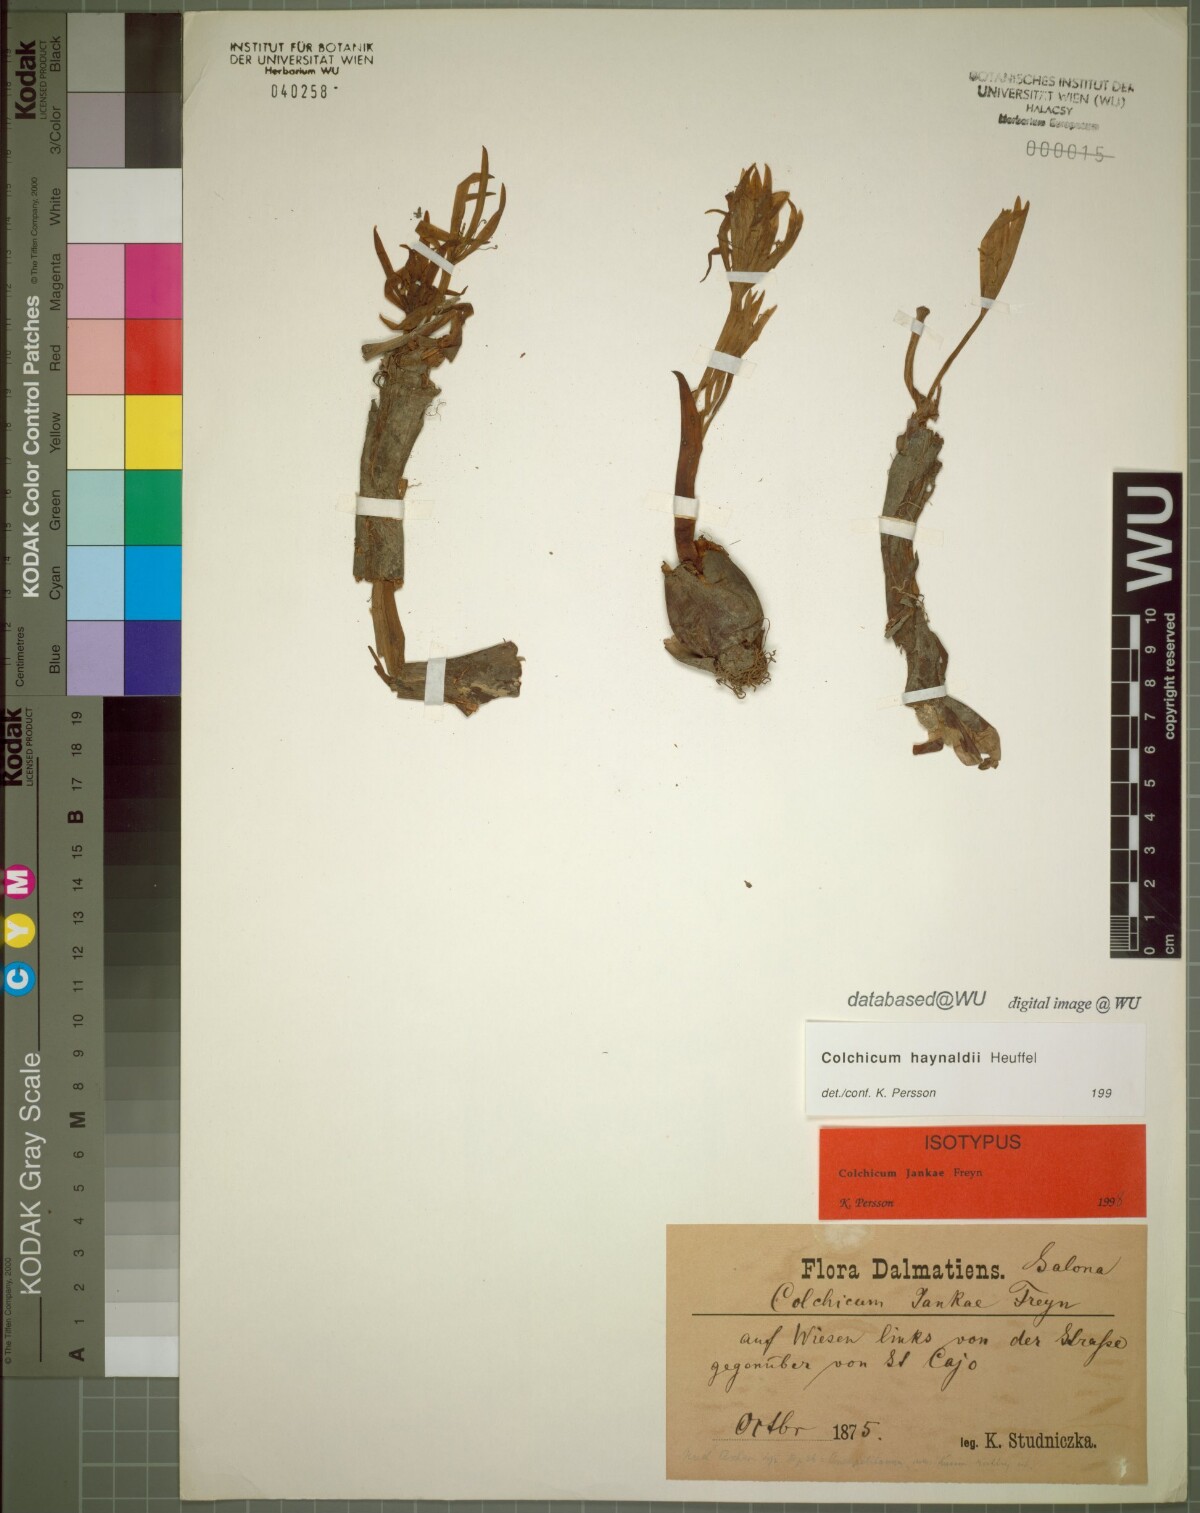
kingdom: Plantae
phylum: Tracheophyta
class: Liliopsida
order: Liliales
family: Colchicaceae
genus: Colchicum
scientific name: Colchicum haynaldii
